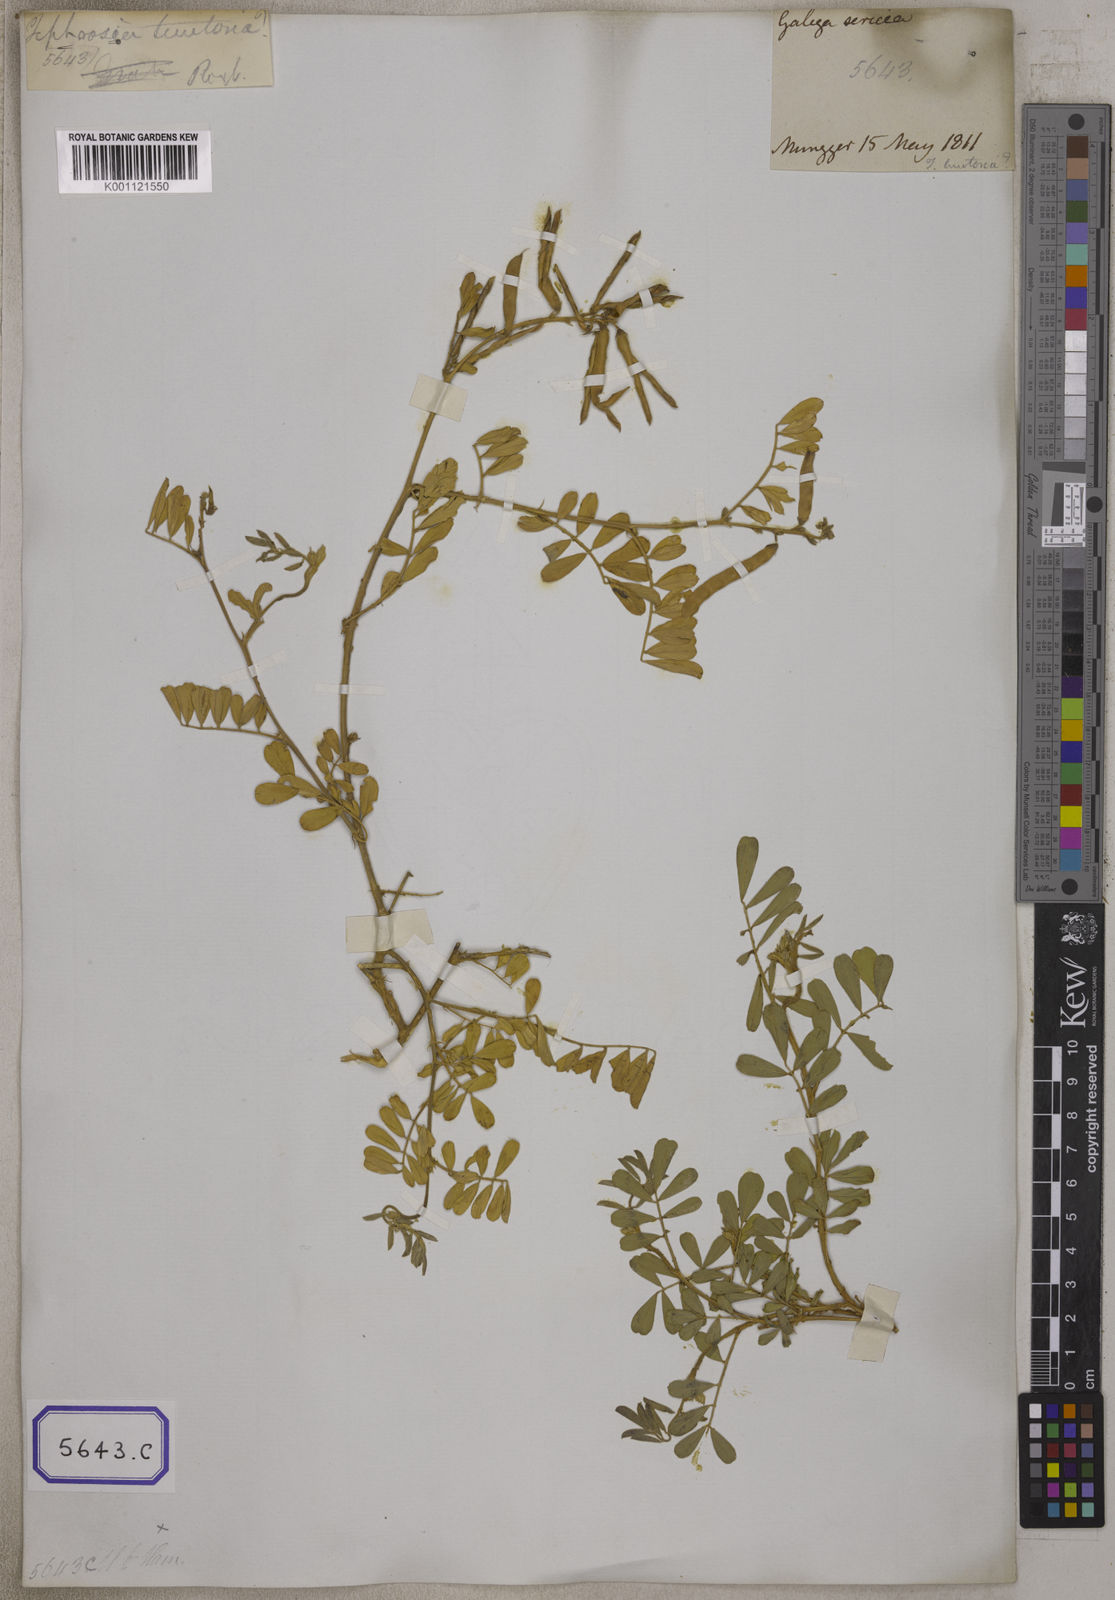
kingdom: Plantae
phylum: Tracheophyta
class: Magnoliopsida
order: Fabales
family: Fabaceae
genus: Tephrosia
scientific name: Tephrosia purpurea
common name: Fishpoison
